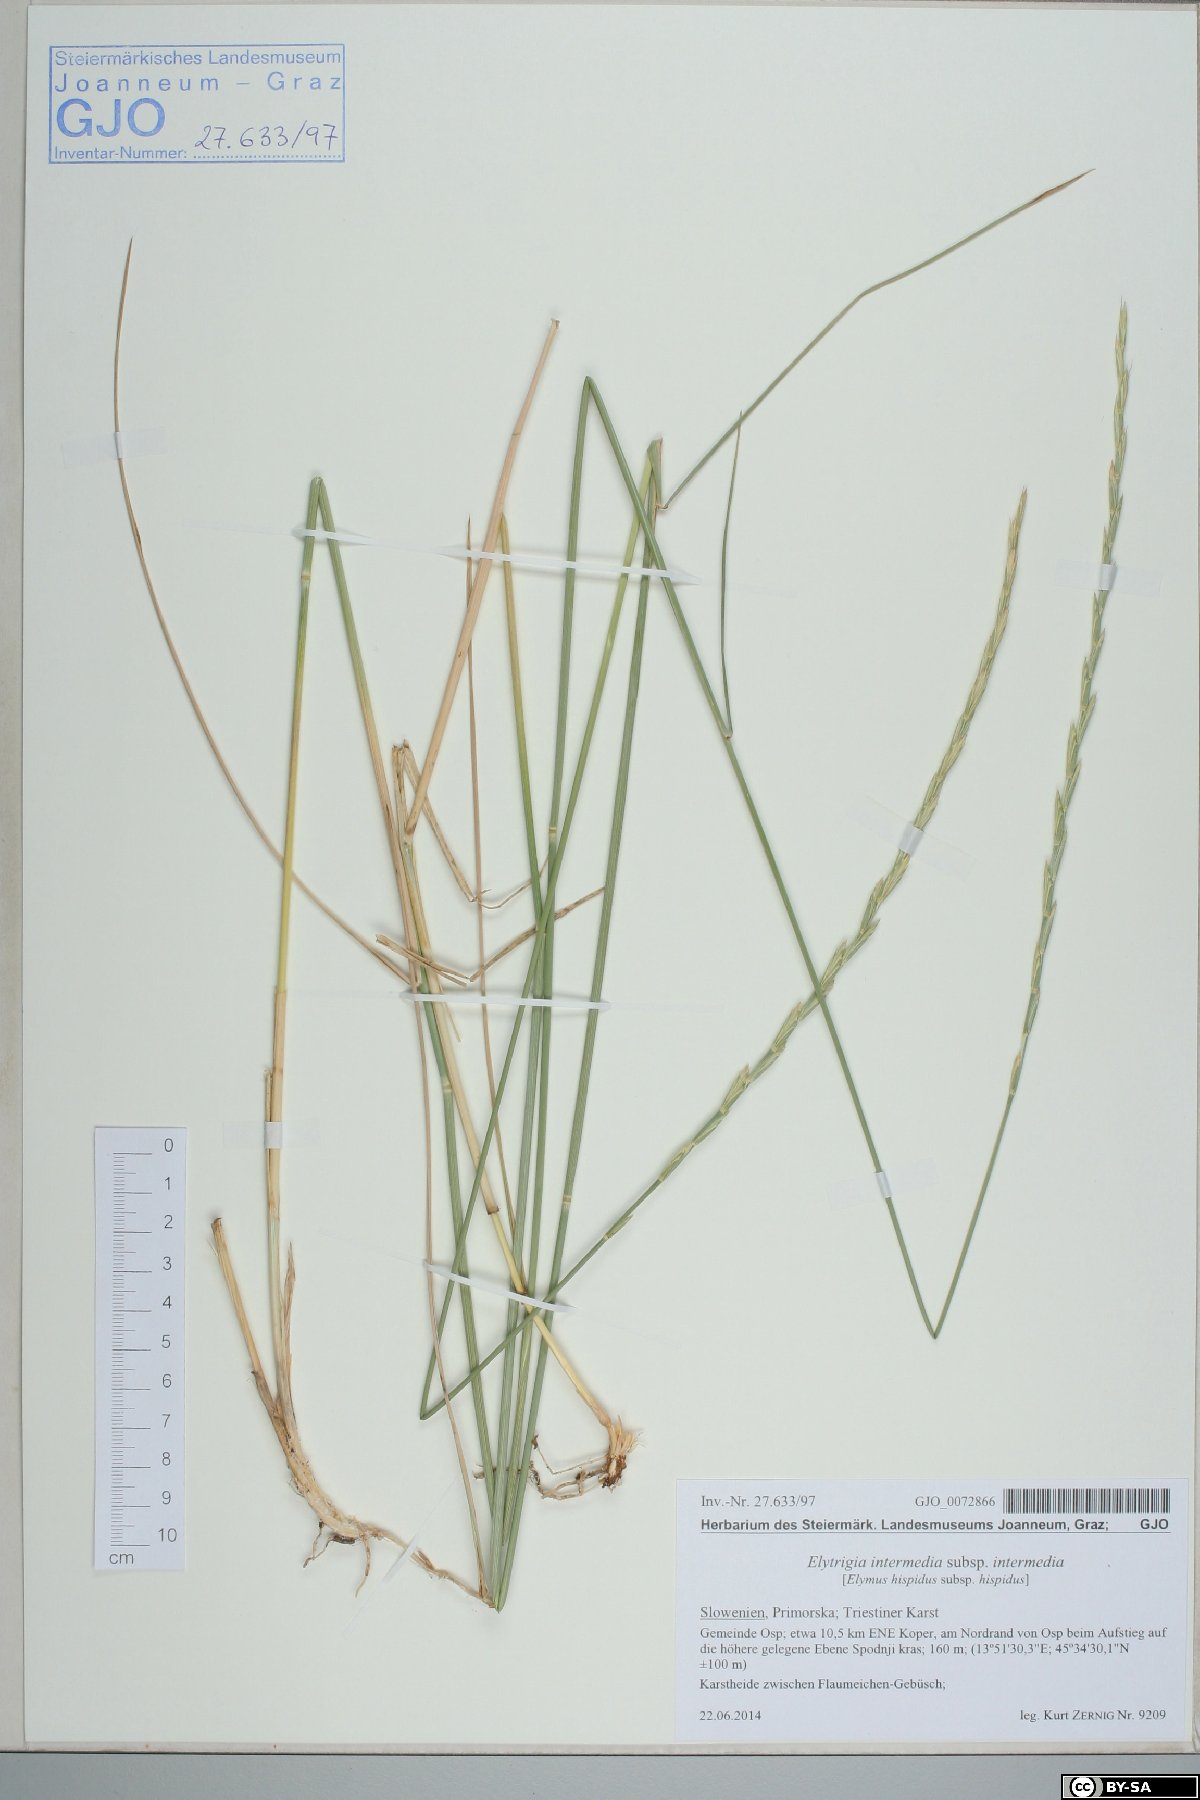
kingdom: Plantae
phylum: Tracheophyta
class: Liliopsida
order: Poales
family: Poaceae
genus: Thinopyrum
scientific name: Thinopyrum intermedium
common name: Intermediate wheatgrass
